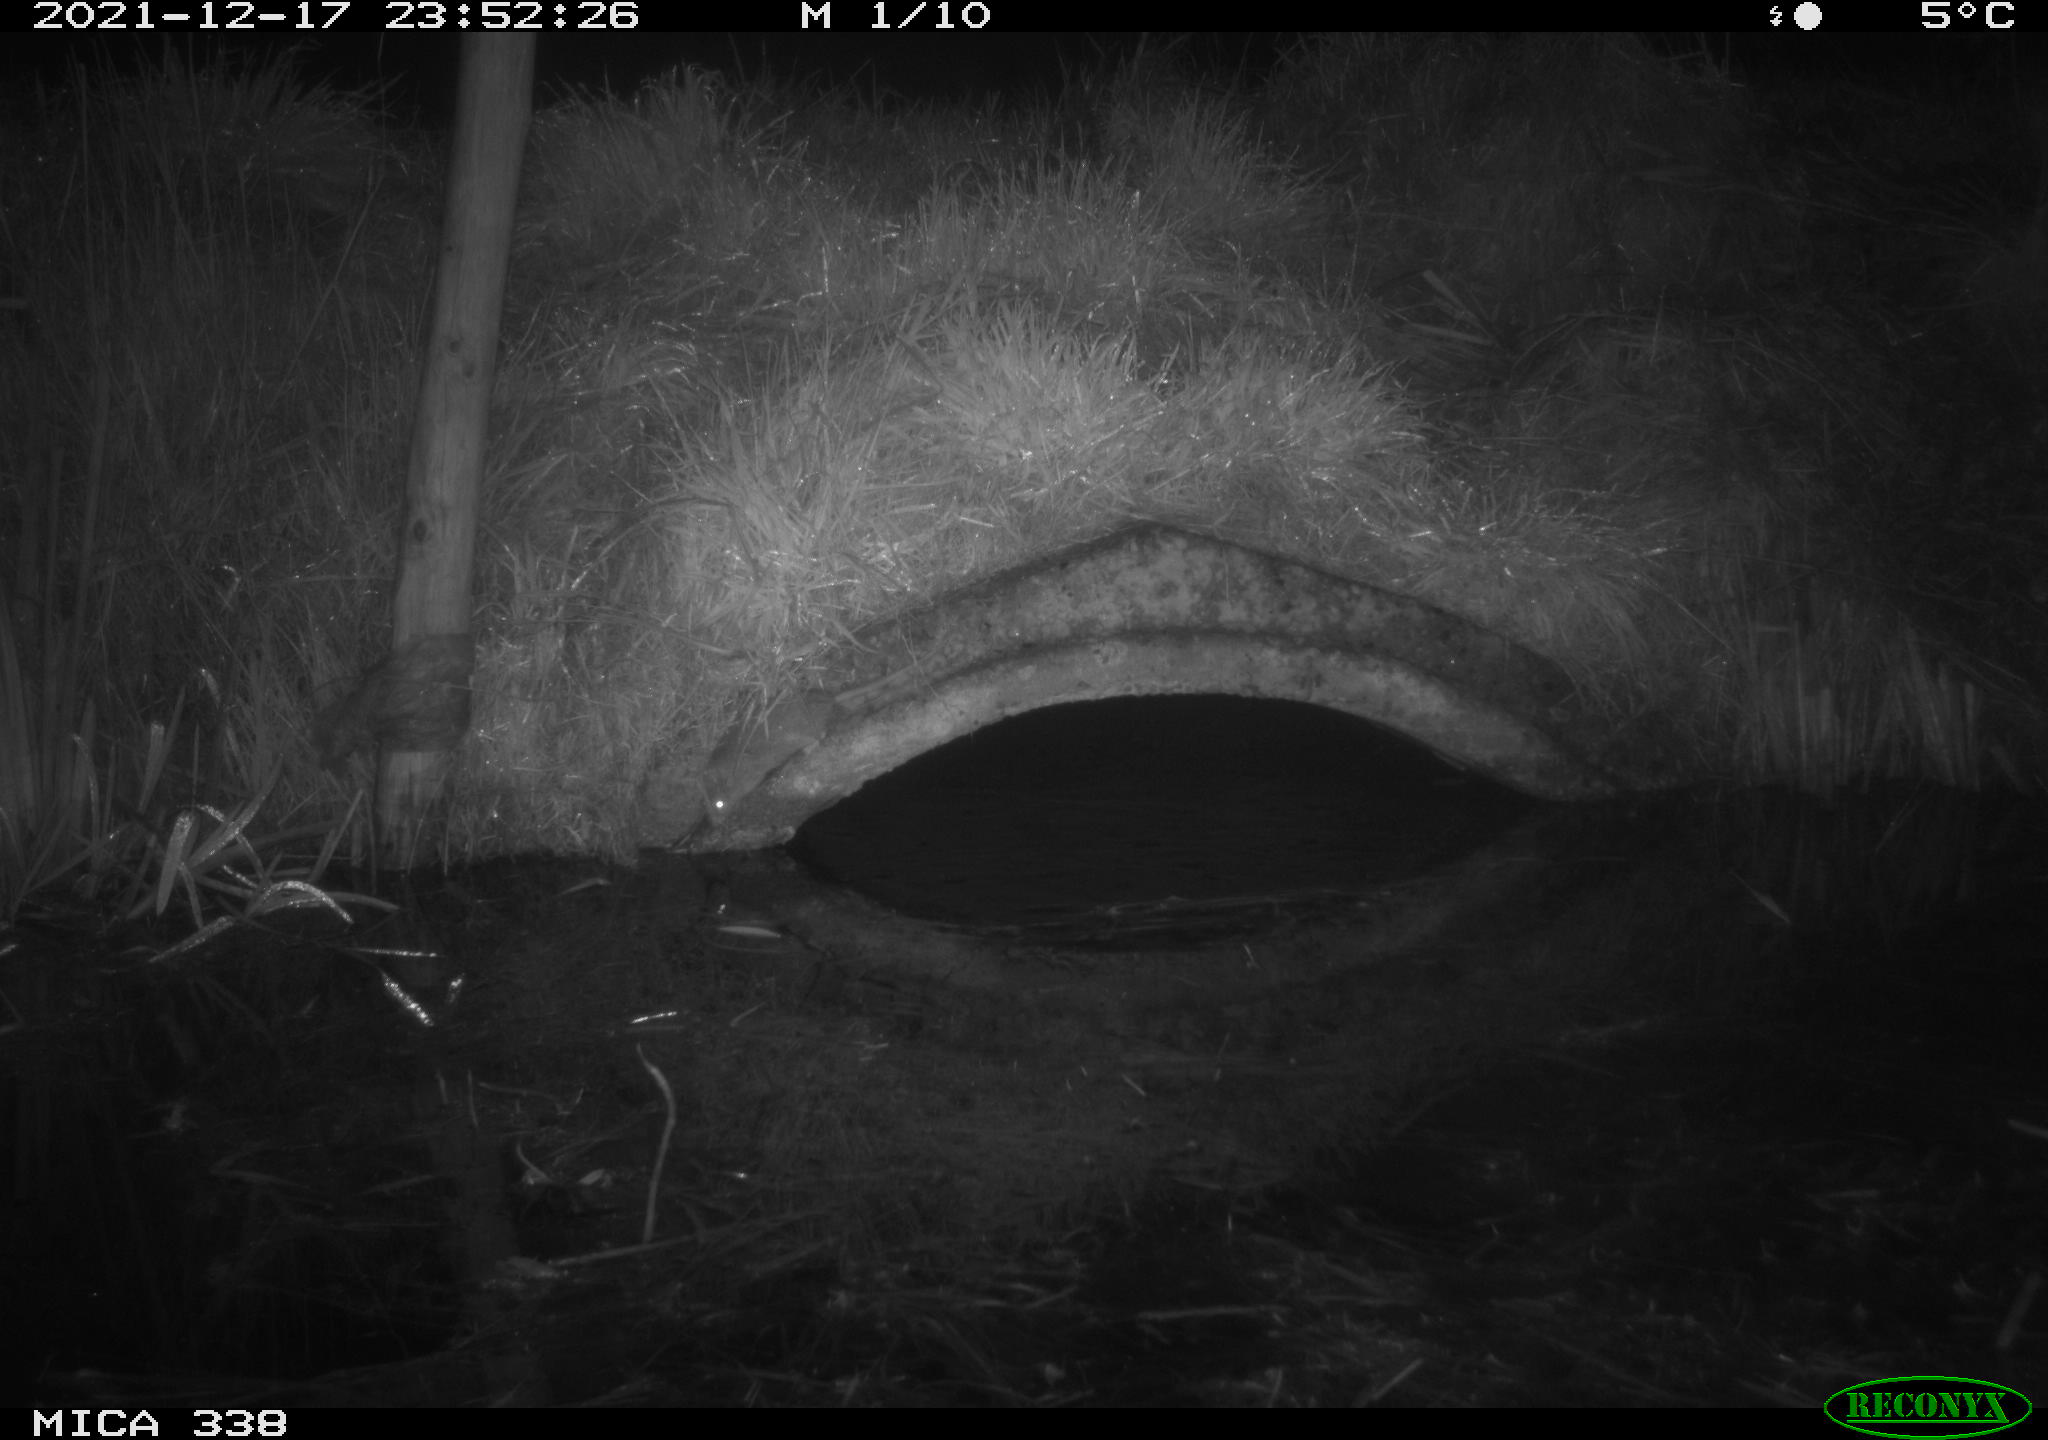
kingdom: Animalia
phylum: Chordata
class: Mammalia
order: Rodentia
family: Muridae
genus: Rattus
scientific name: Rattus norvegicus
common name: Brown rat
